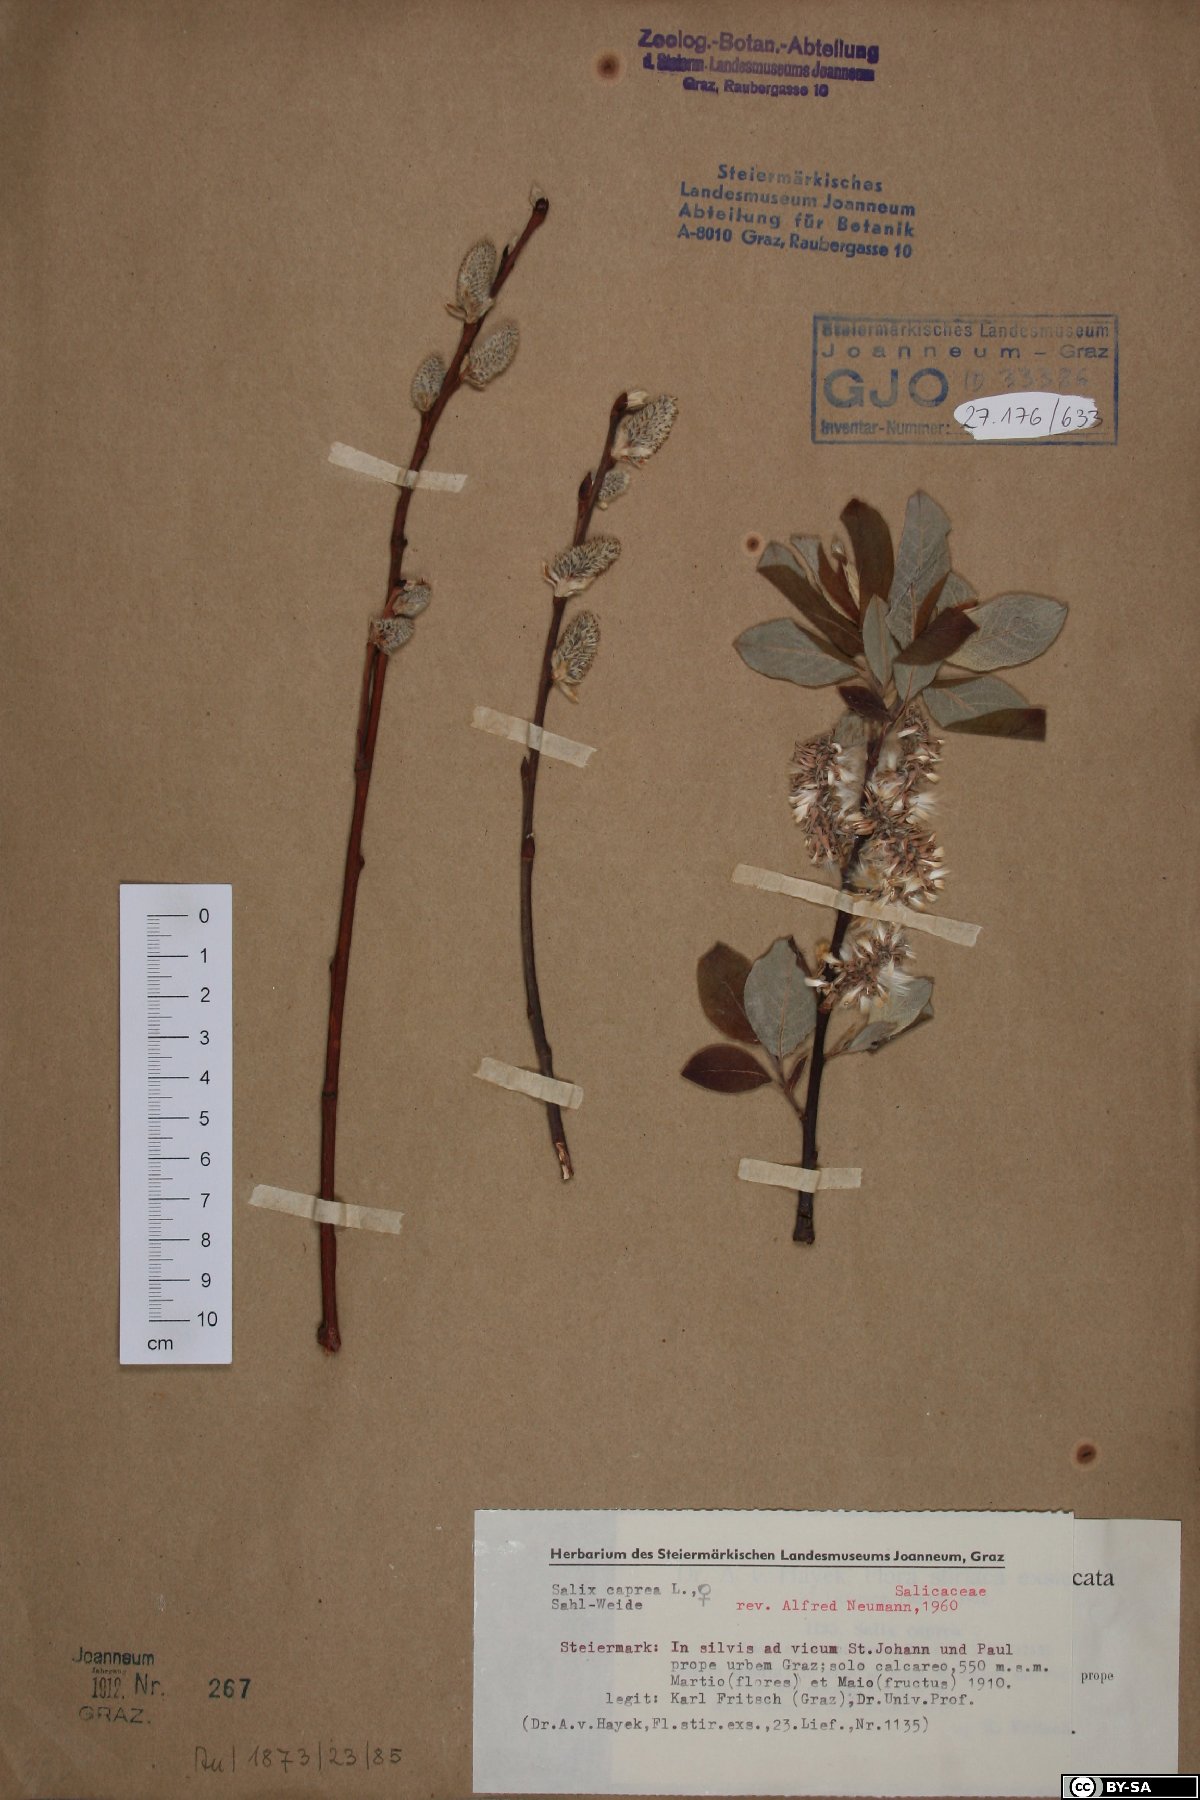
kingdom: Plantae
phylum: Tracheophyta
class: Magnoliopsida
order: Malpighiales
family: Salicaceae
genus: Salix
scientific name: Salix caprea
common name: Goat willow
